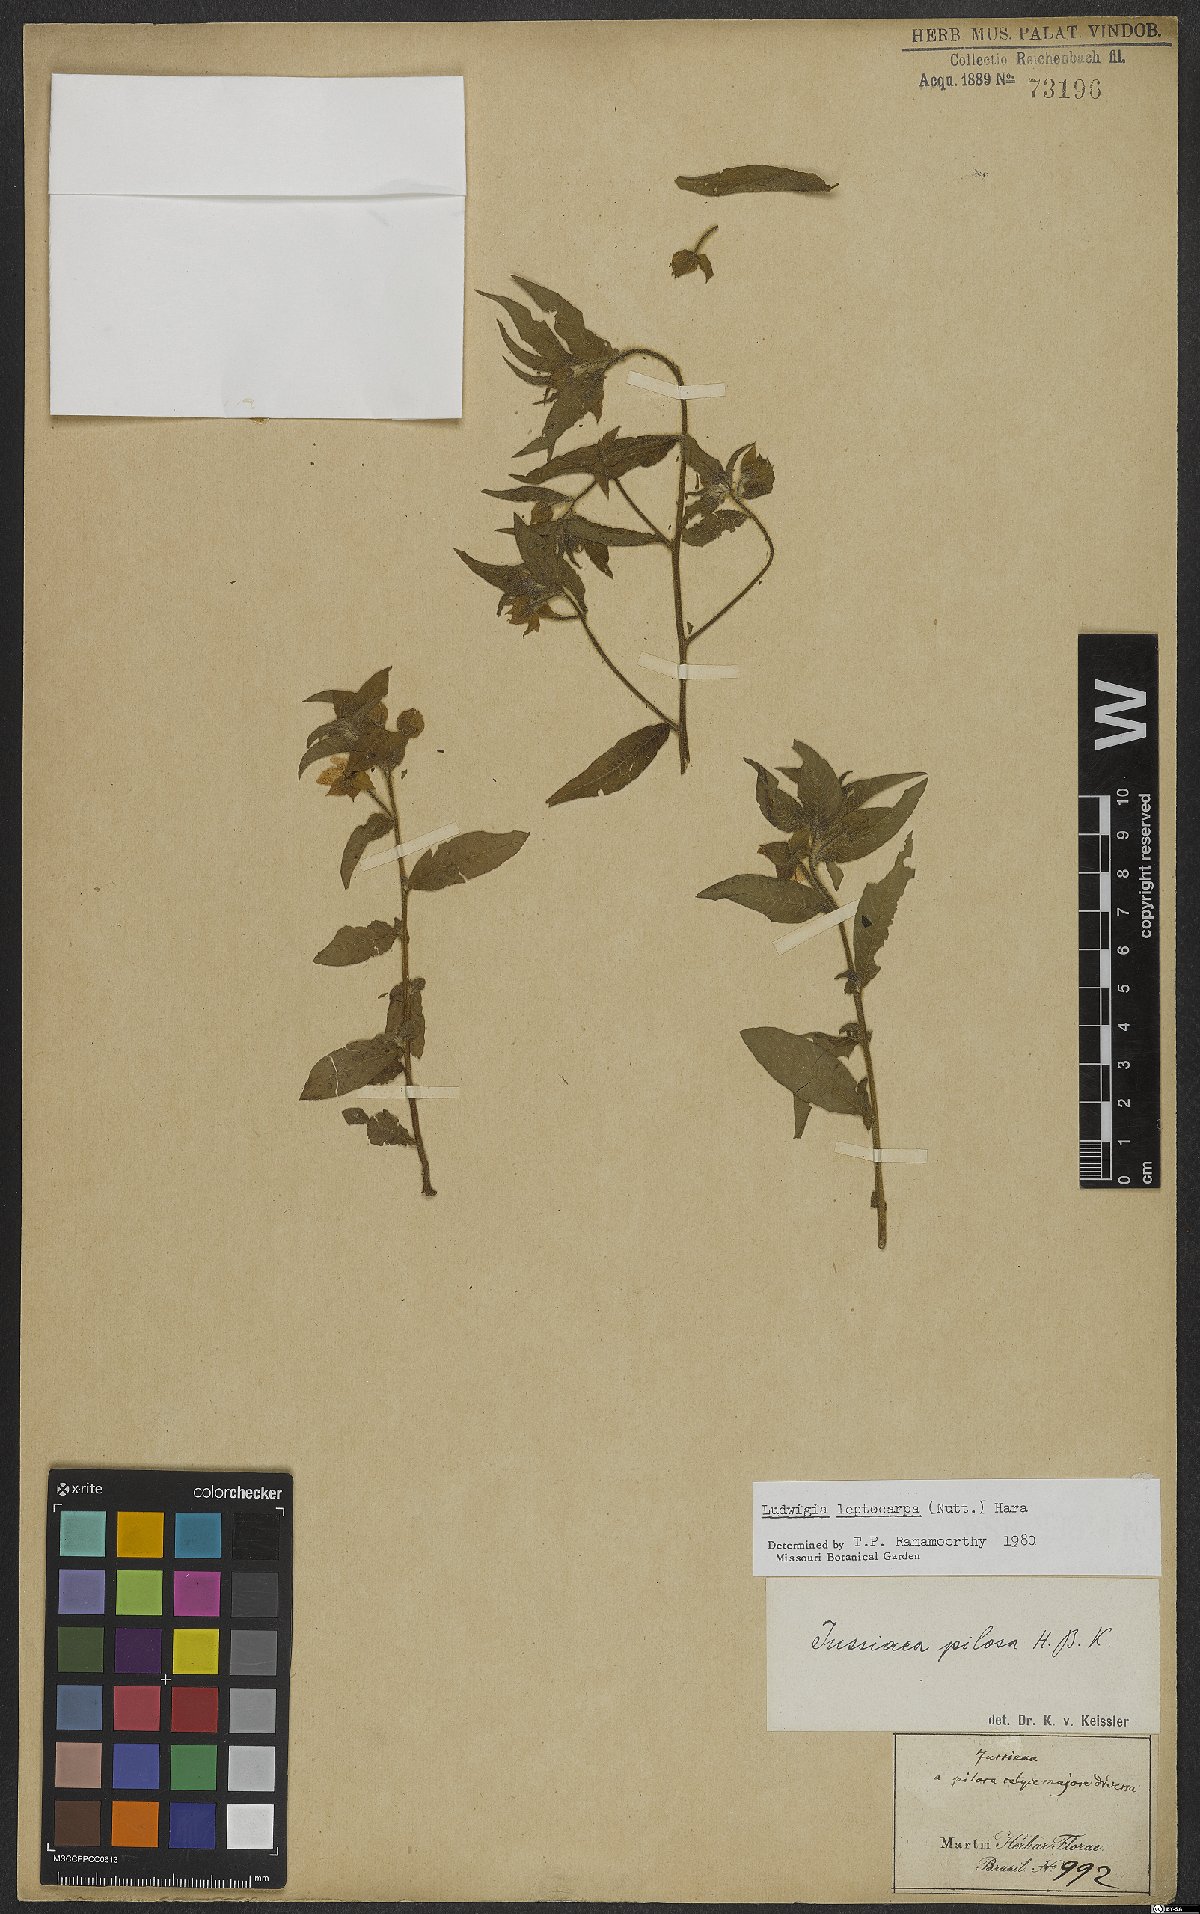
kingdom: Plantae
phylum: Tracheophyta
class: Magnoliopsida
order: Myrtales
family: Onagraceae
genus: Ludwigia
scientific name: Ludwigia leptocarpa
